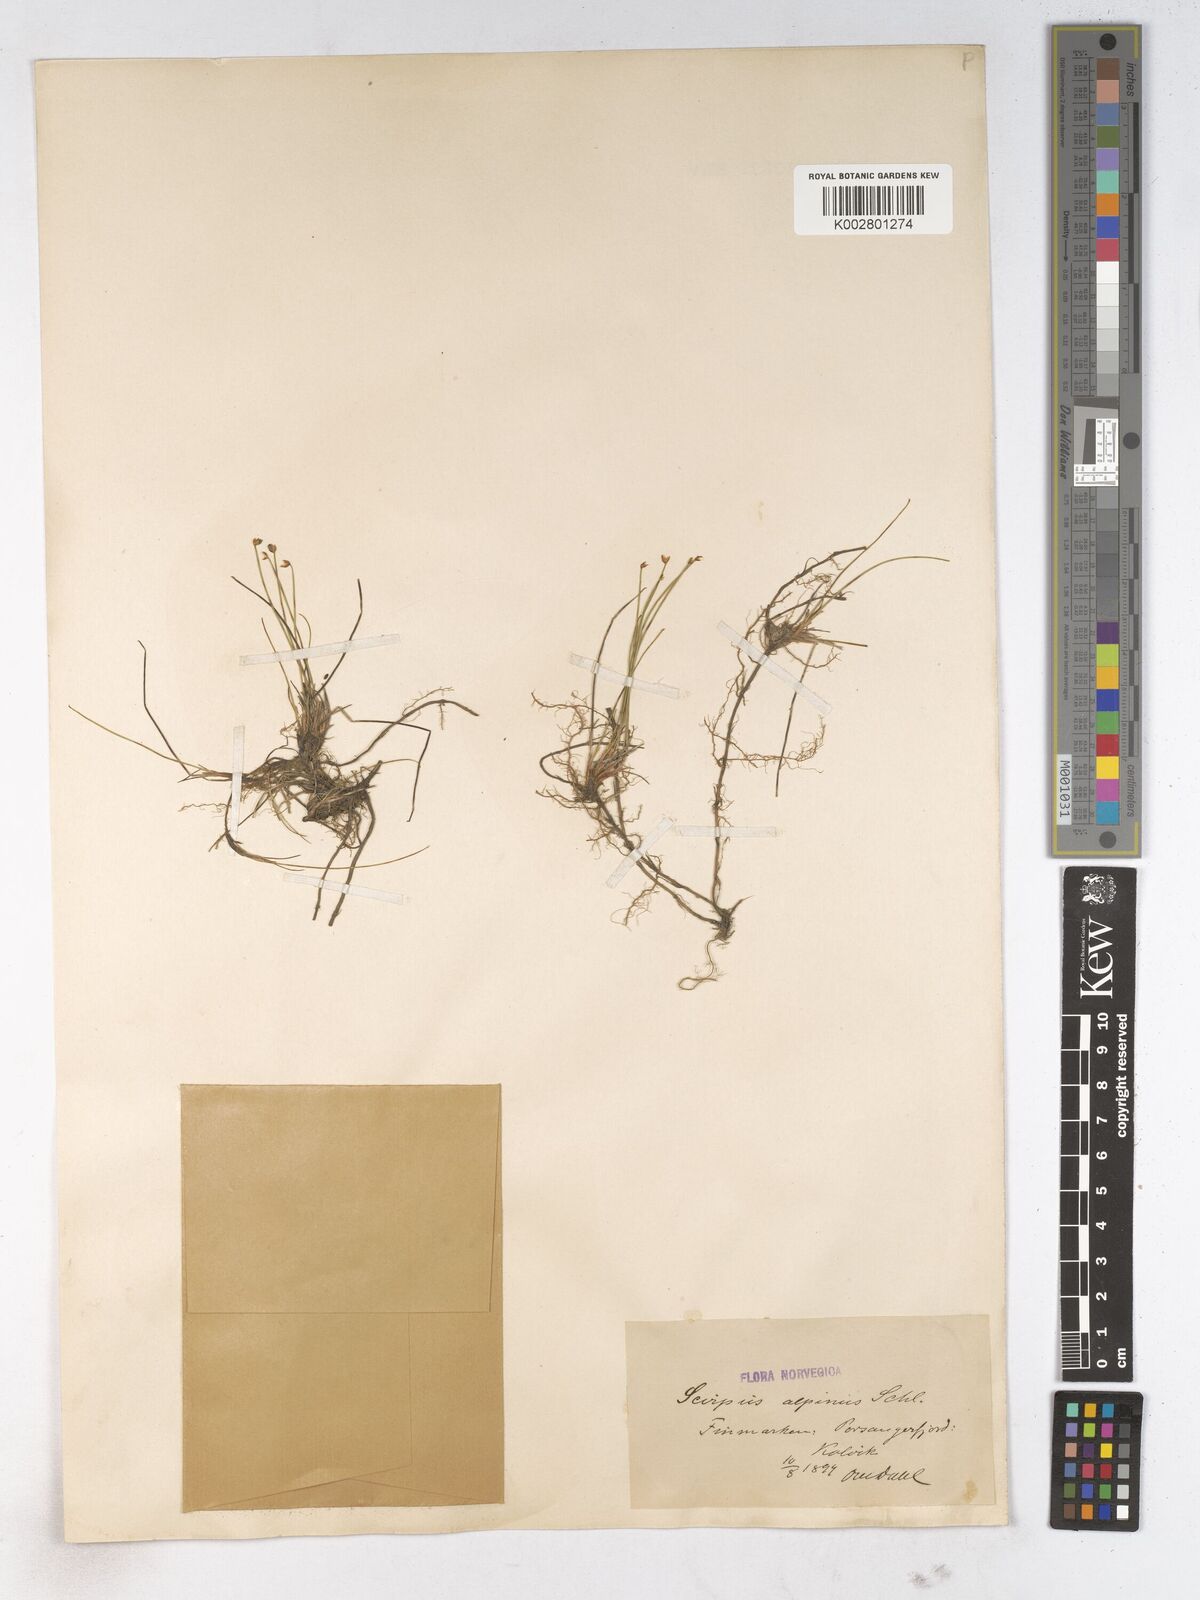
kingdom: Plantae
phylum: Tracheophyta
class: Liliopsida
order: Poales
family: Cyperaceae
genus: Trichophorum
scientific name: Trichophorum pumilum
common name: Rolland's bulrush
